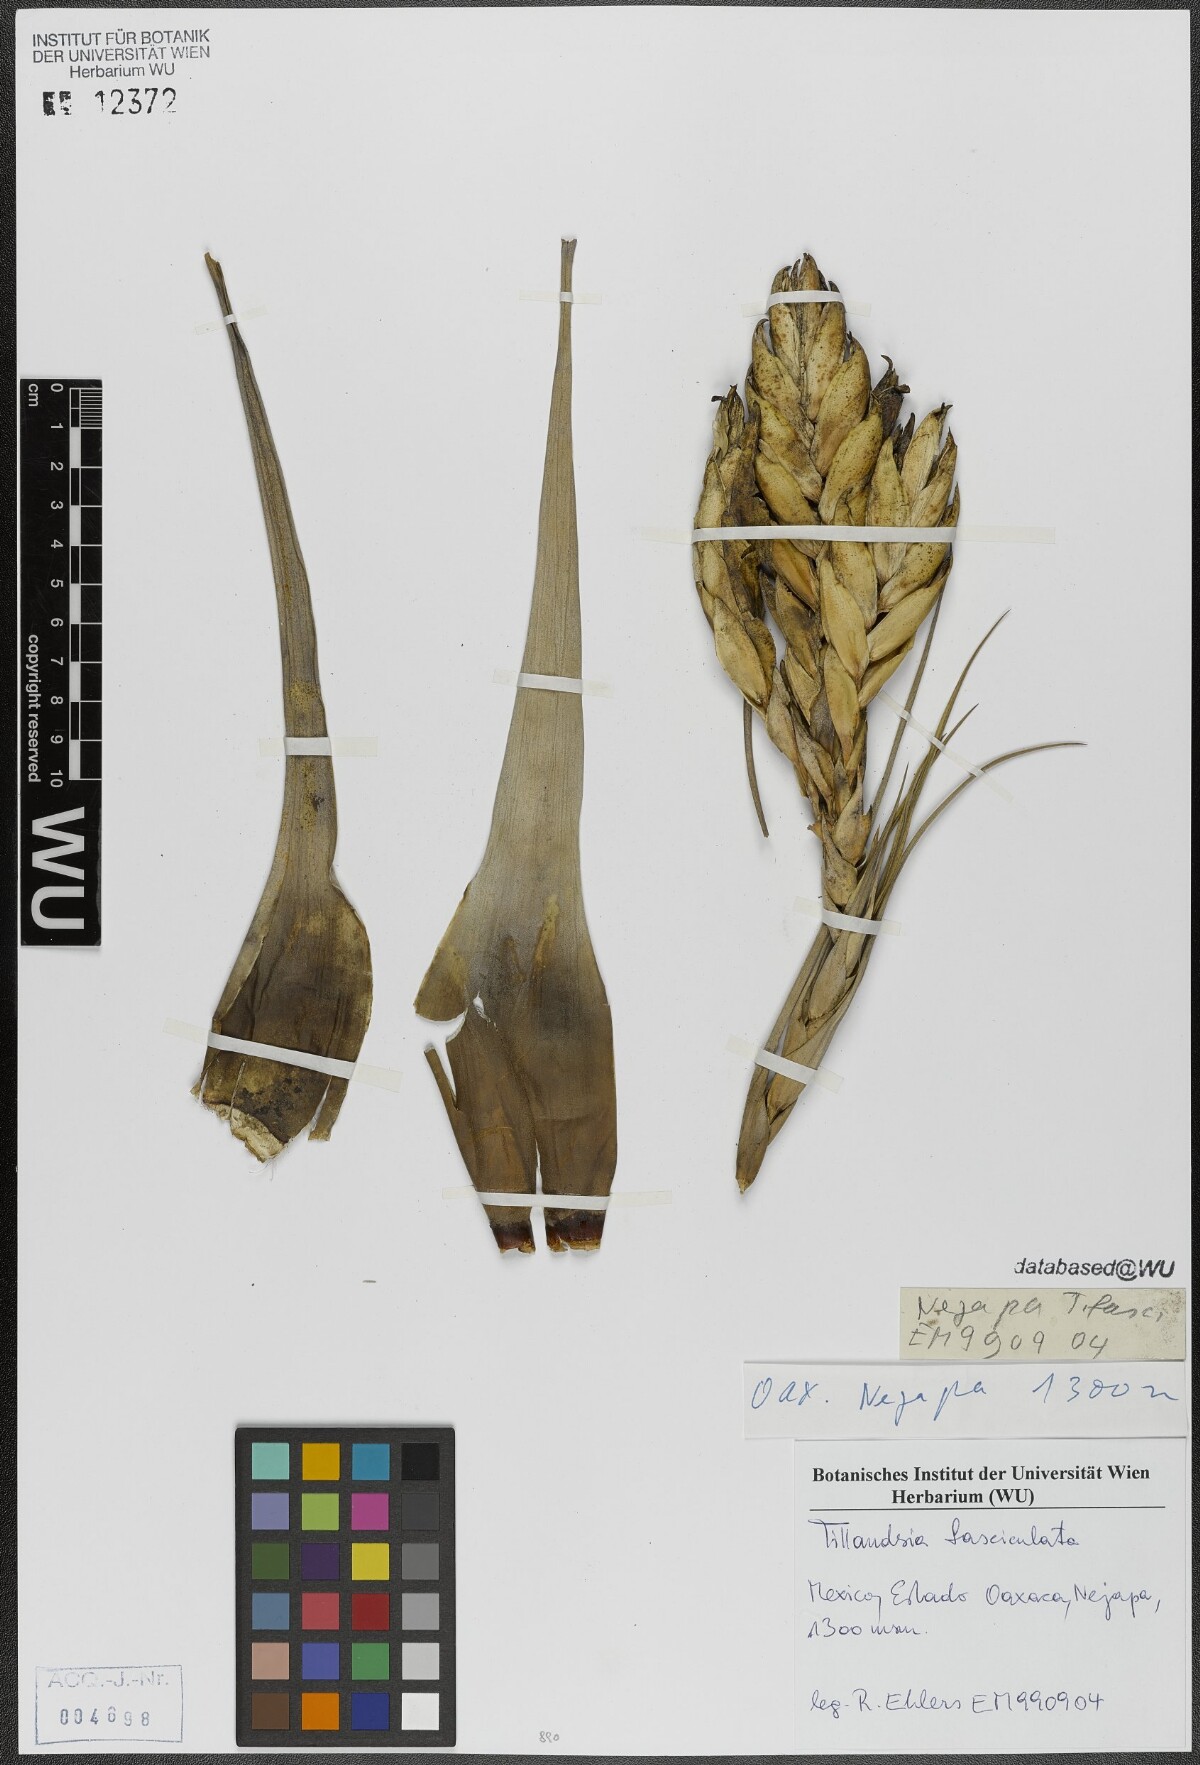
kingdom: Plantae
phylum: Tracheophyta
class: Liliopsida
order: Poales
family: Bromeliaceae
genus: Tillandsia
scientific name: Tillandsia fasciculata
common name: Giant airplant
